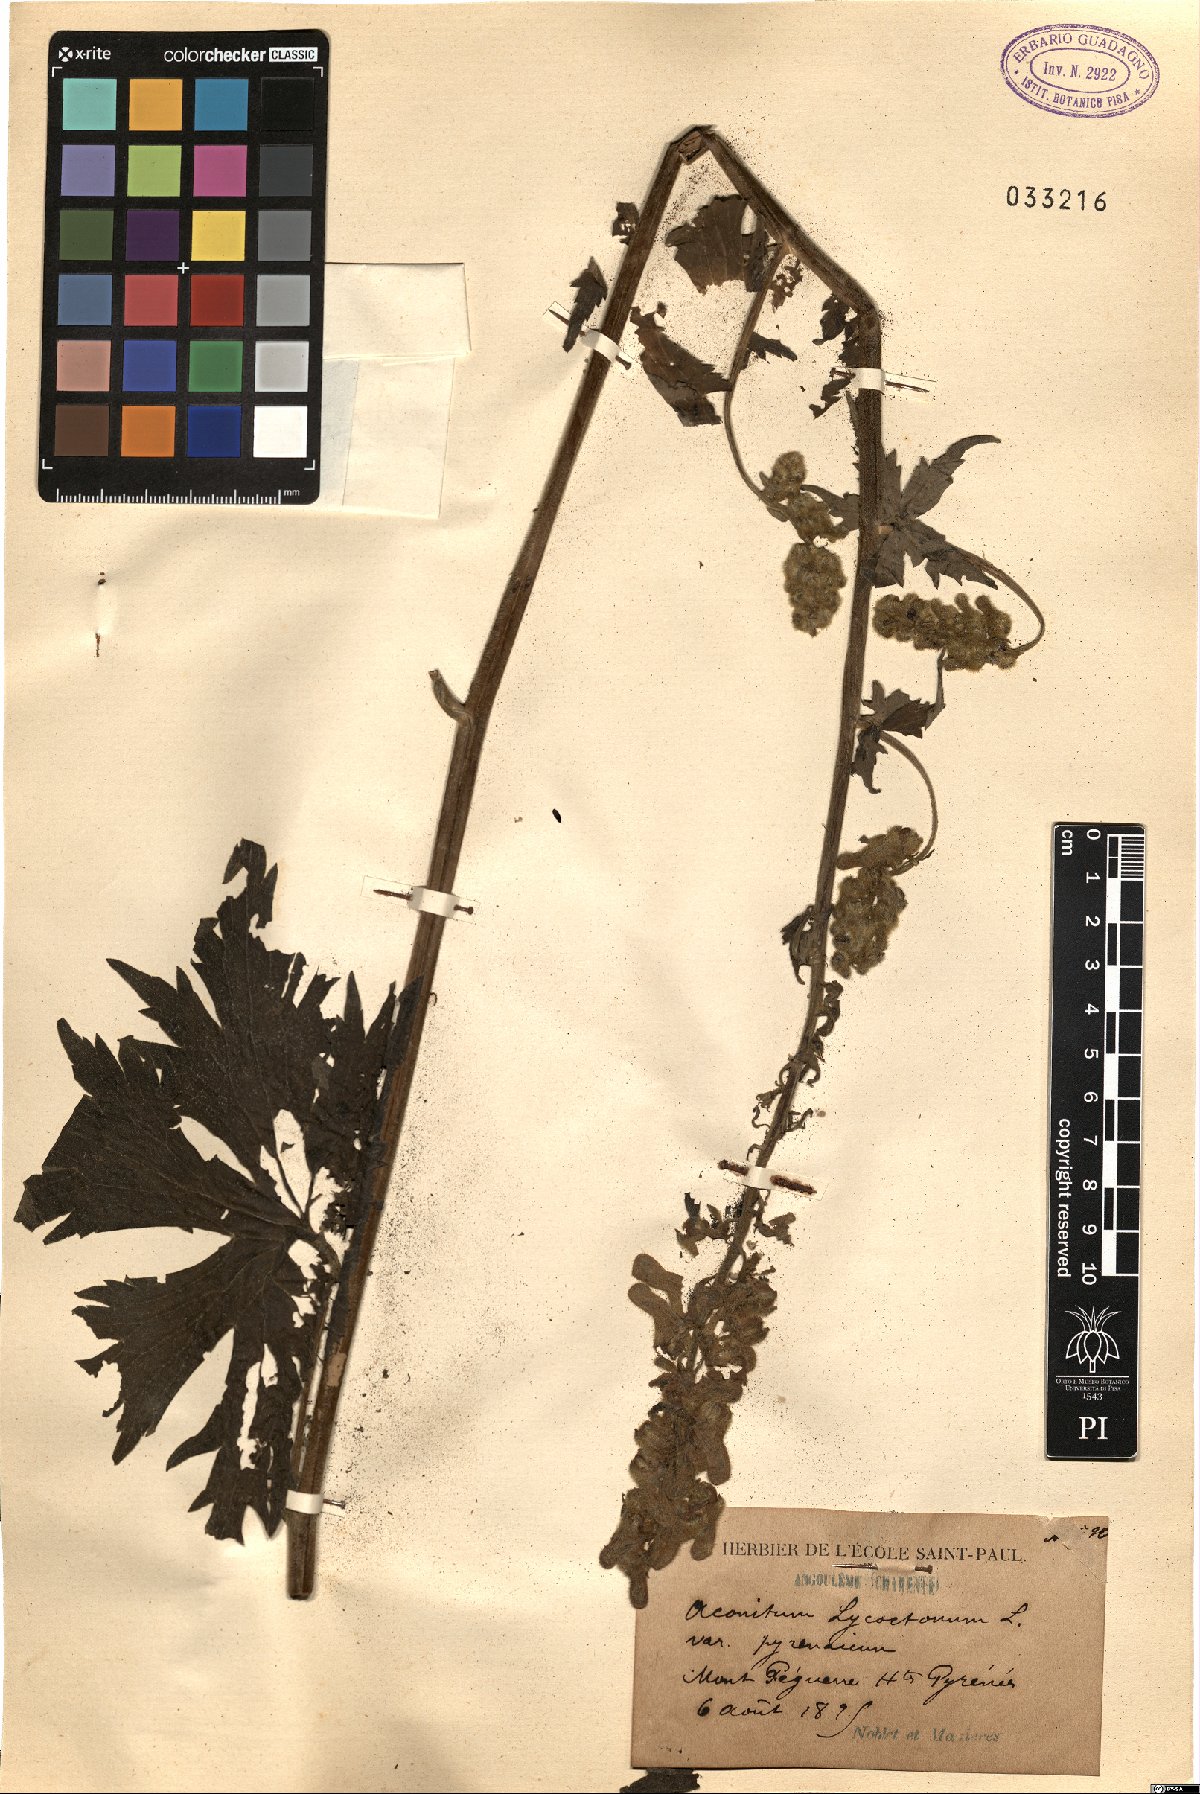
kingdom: Plantae
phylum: Tracheophyta
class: Magnoliopsida
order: Ranunculales
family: Ranunculaceae
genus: Aconitum
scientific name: Aconitum lycoctonum
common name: Wolf's-bane
